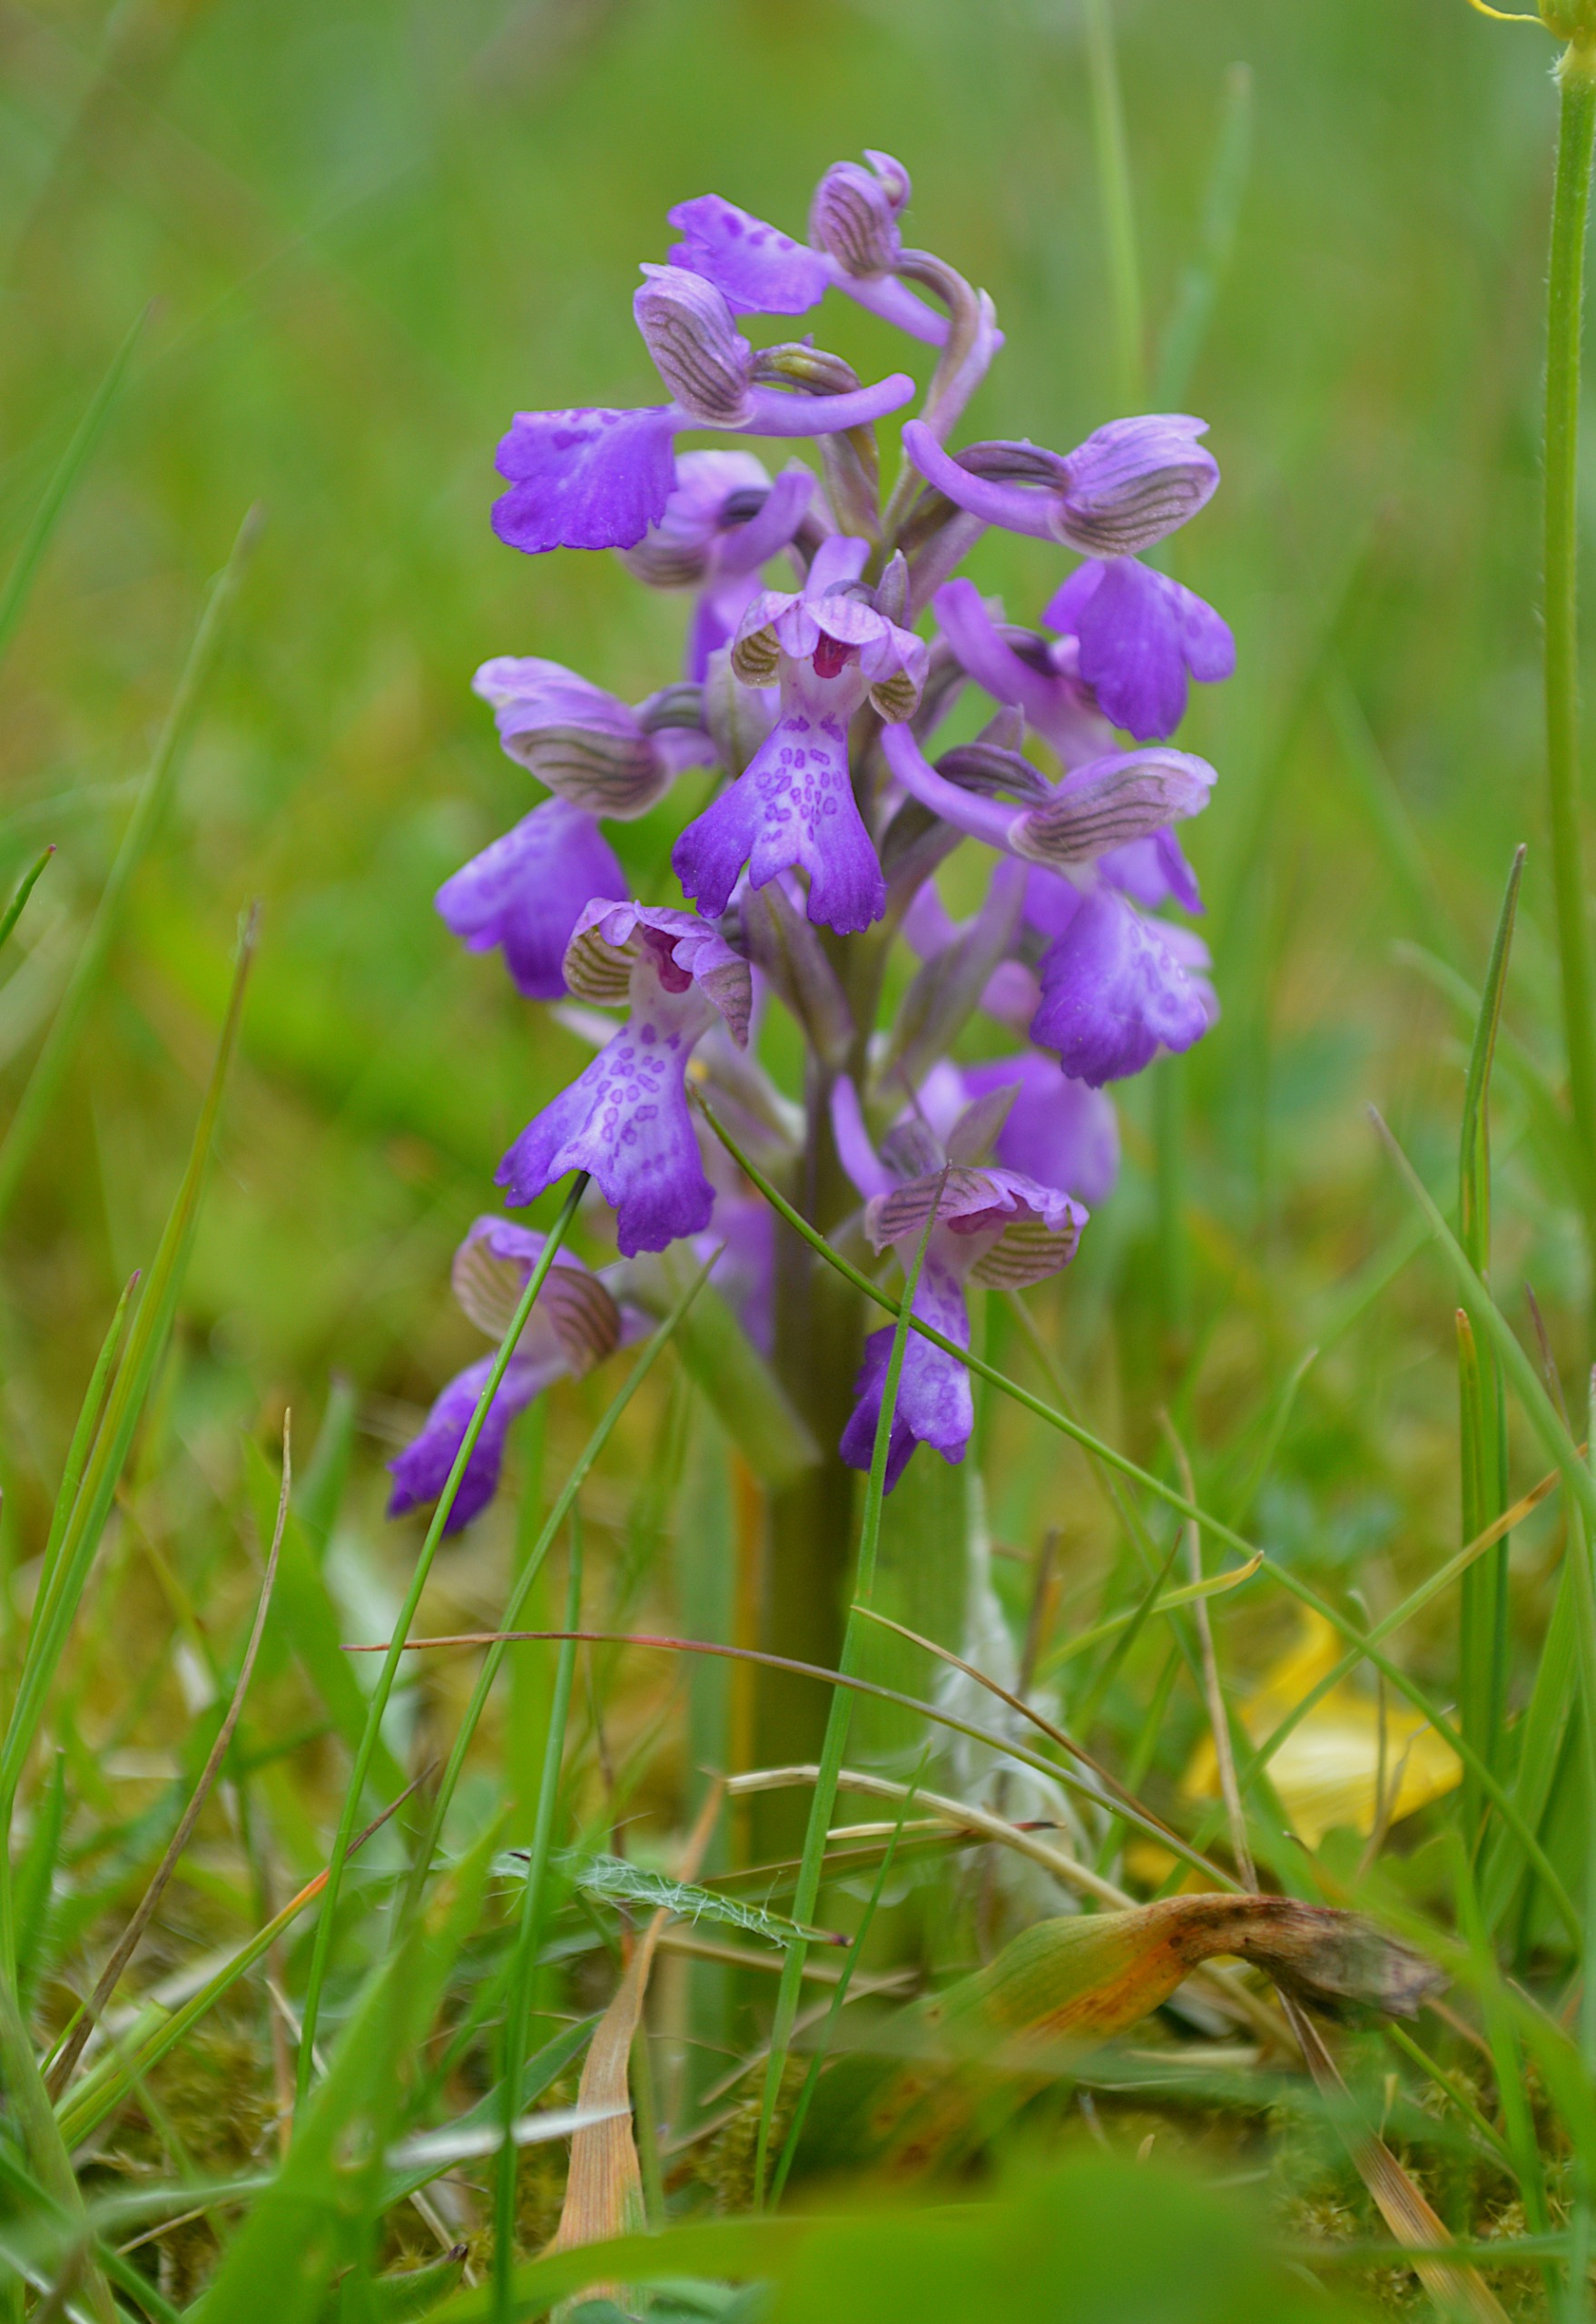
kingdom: Plantae
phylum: Tracheophyta
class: Liliopsida
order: Asparagales
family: Orchidaceae
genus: Anacamptis
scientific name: Anacamptis morio
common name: Salepgøgeurt
